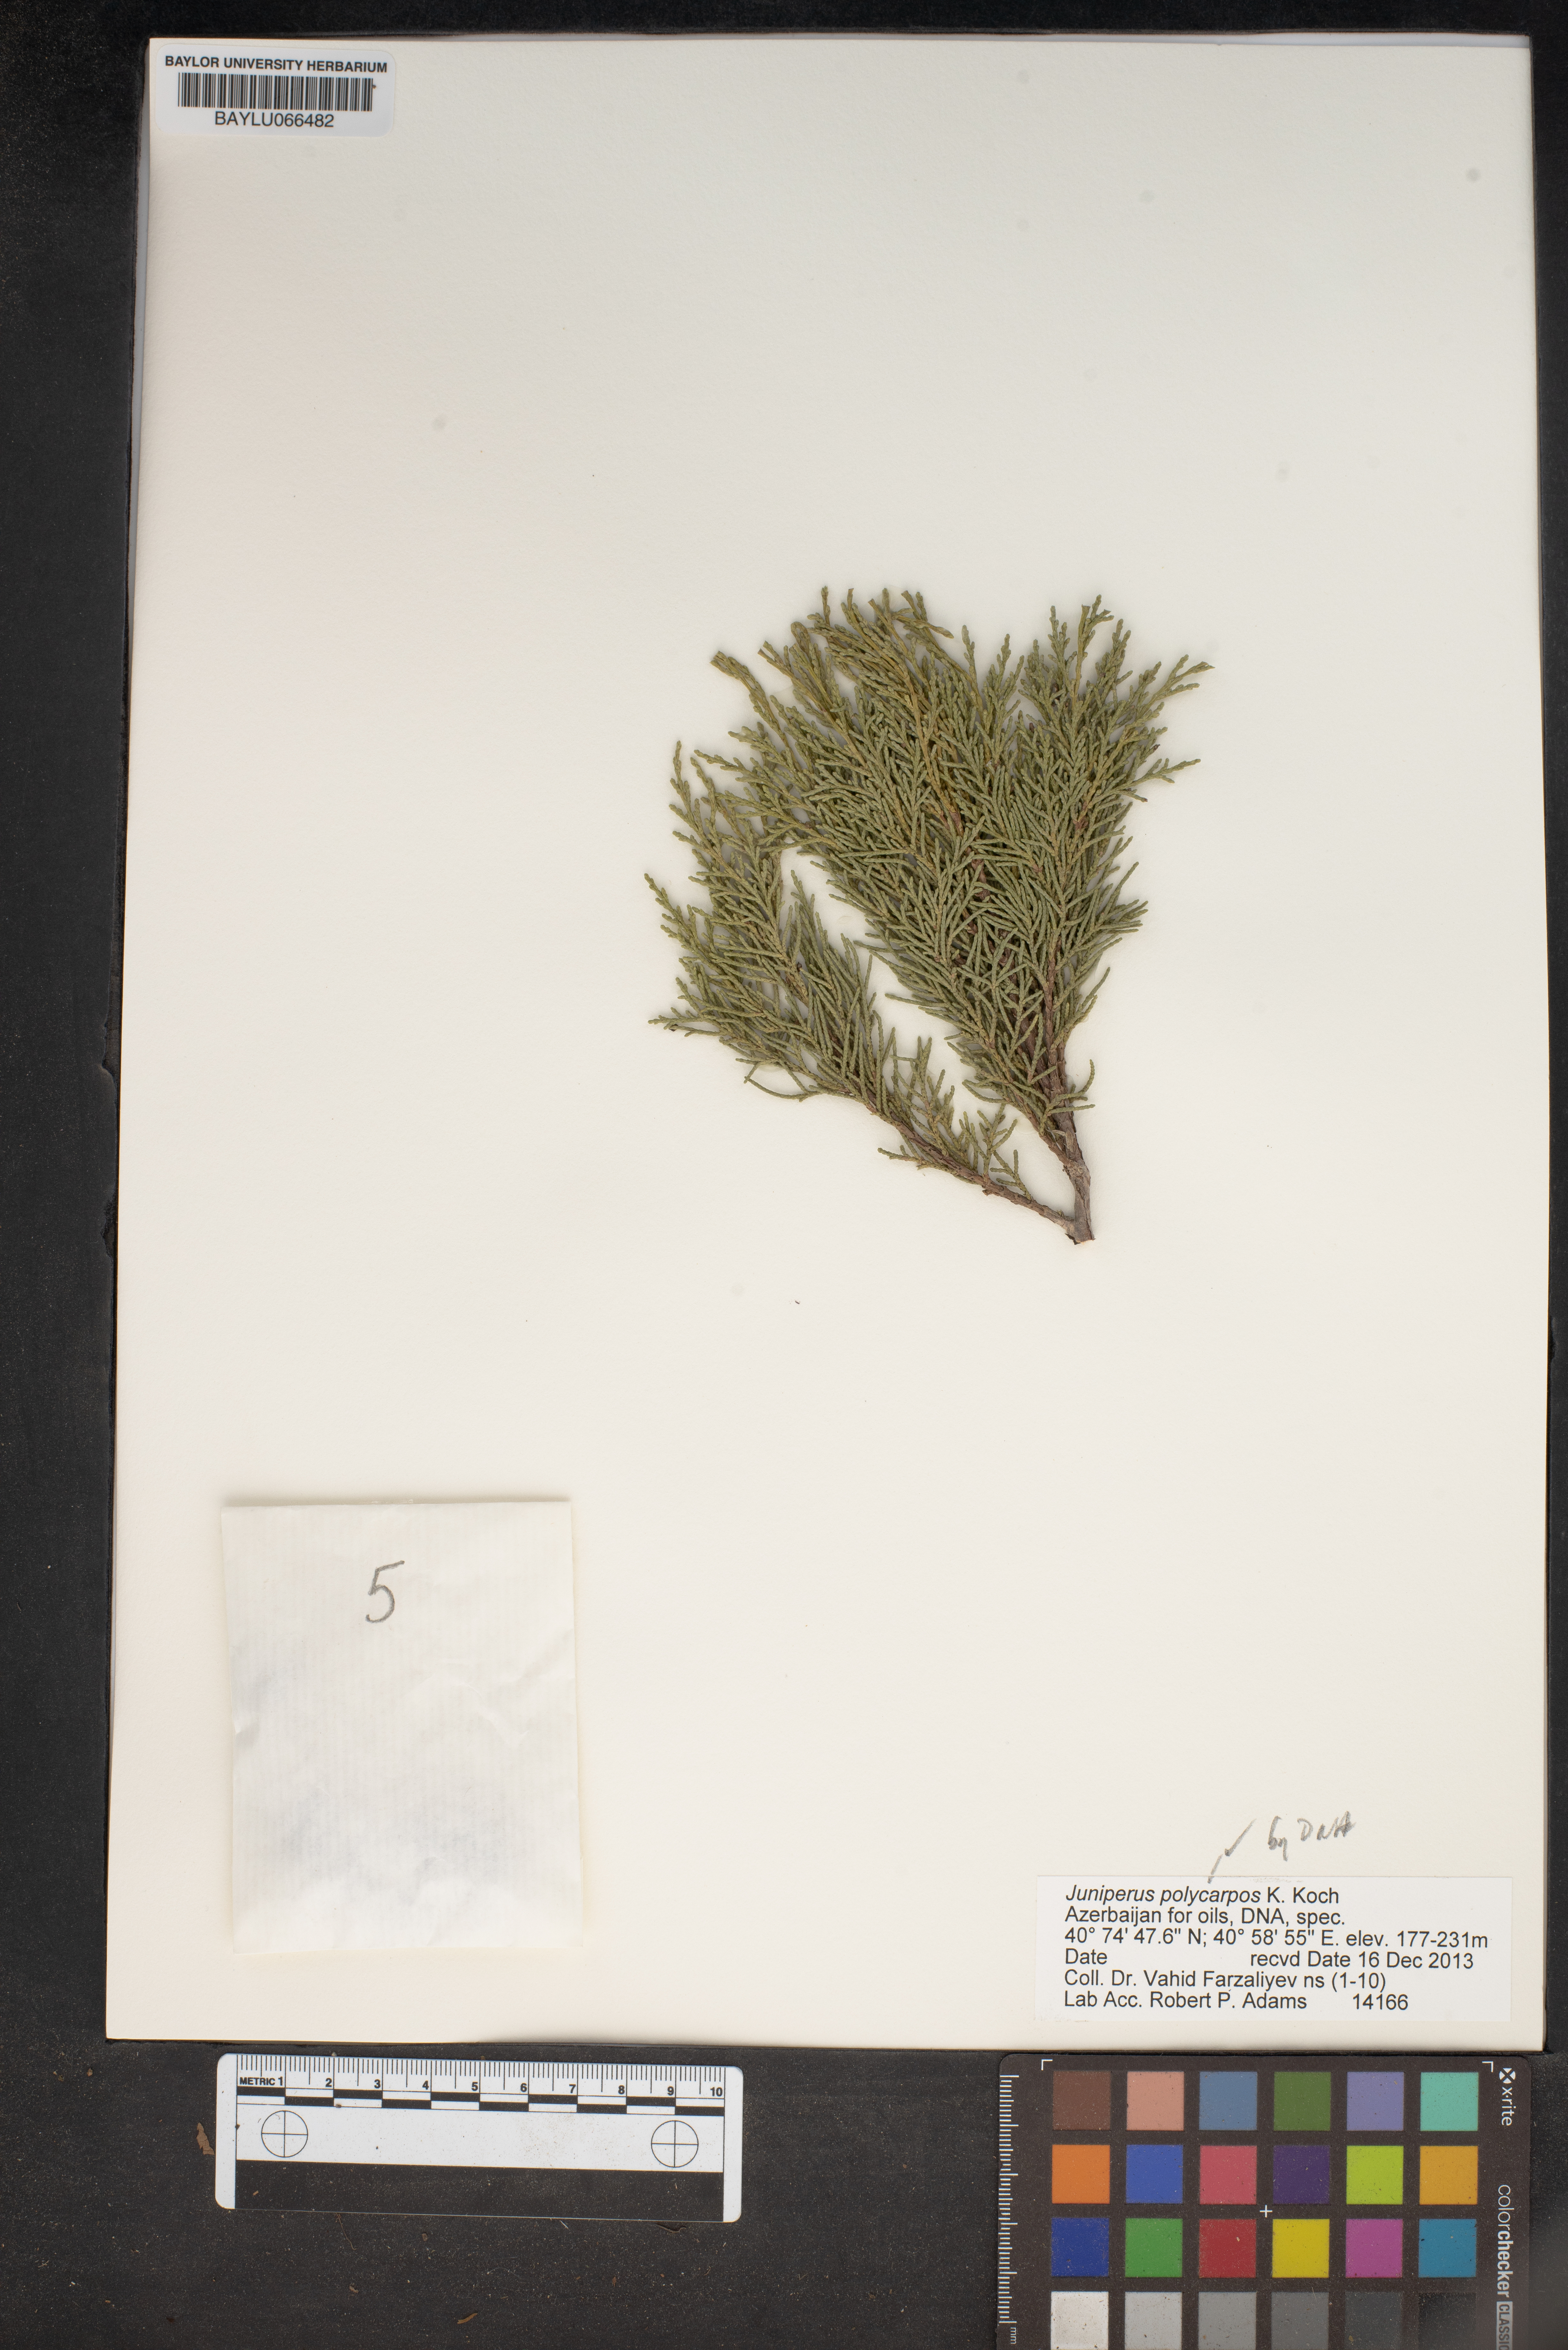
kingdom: Plantae
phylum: Tracheophyta
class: Pinopsida
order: Pinales
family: Cupressaceae
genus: Juniperus
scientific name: Juniperus excelsa
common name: Crimean juniper
